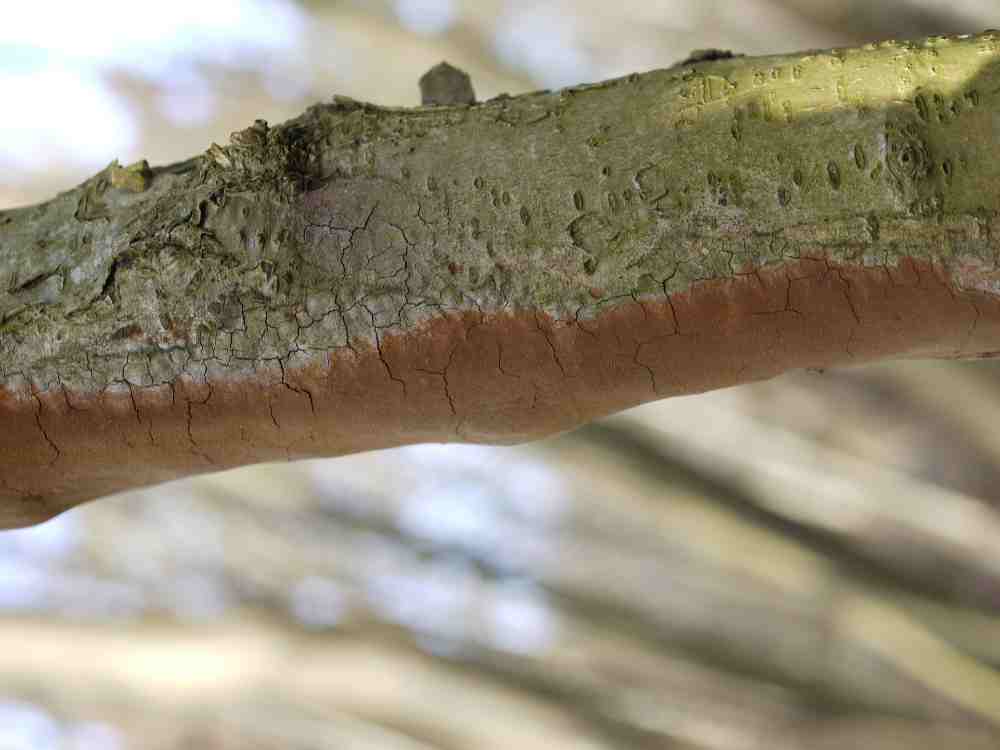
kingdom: Fungi
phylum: Basidiomycota
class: Agaricomycetes
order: Hymenochaetales
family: Hymenochaetaceae
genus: Fomitiporia
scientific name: Fomitiporia punctata
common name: pude-ildporesvamp
